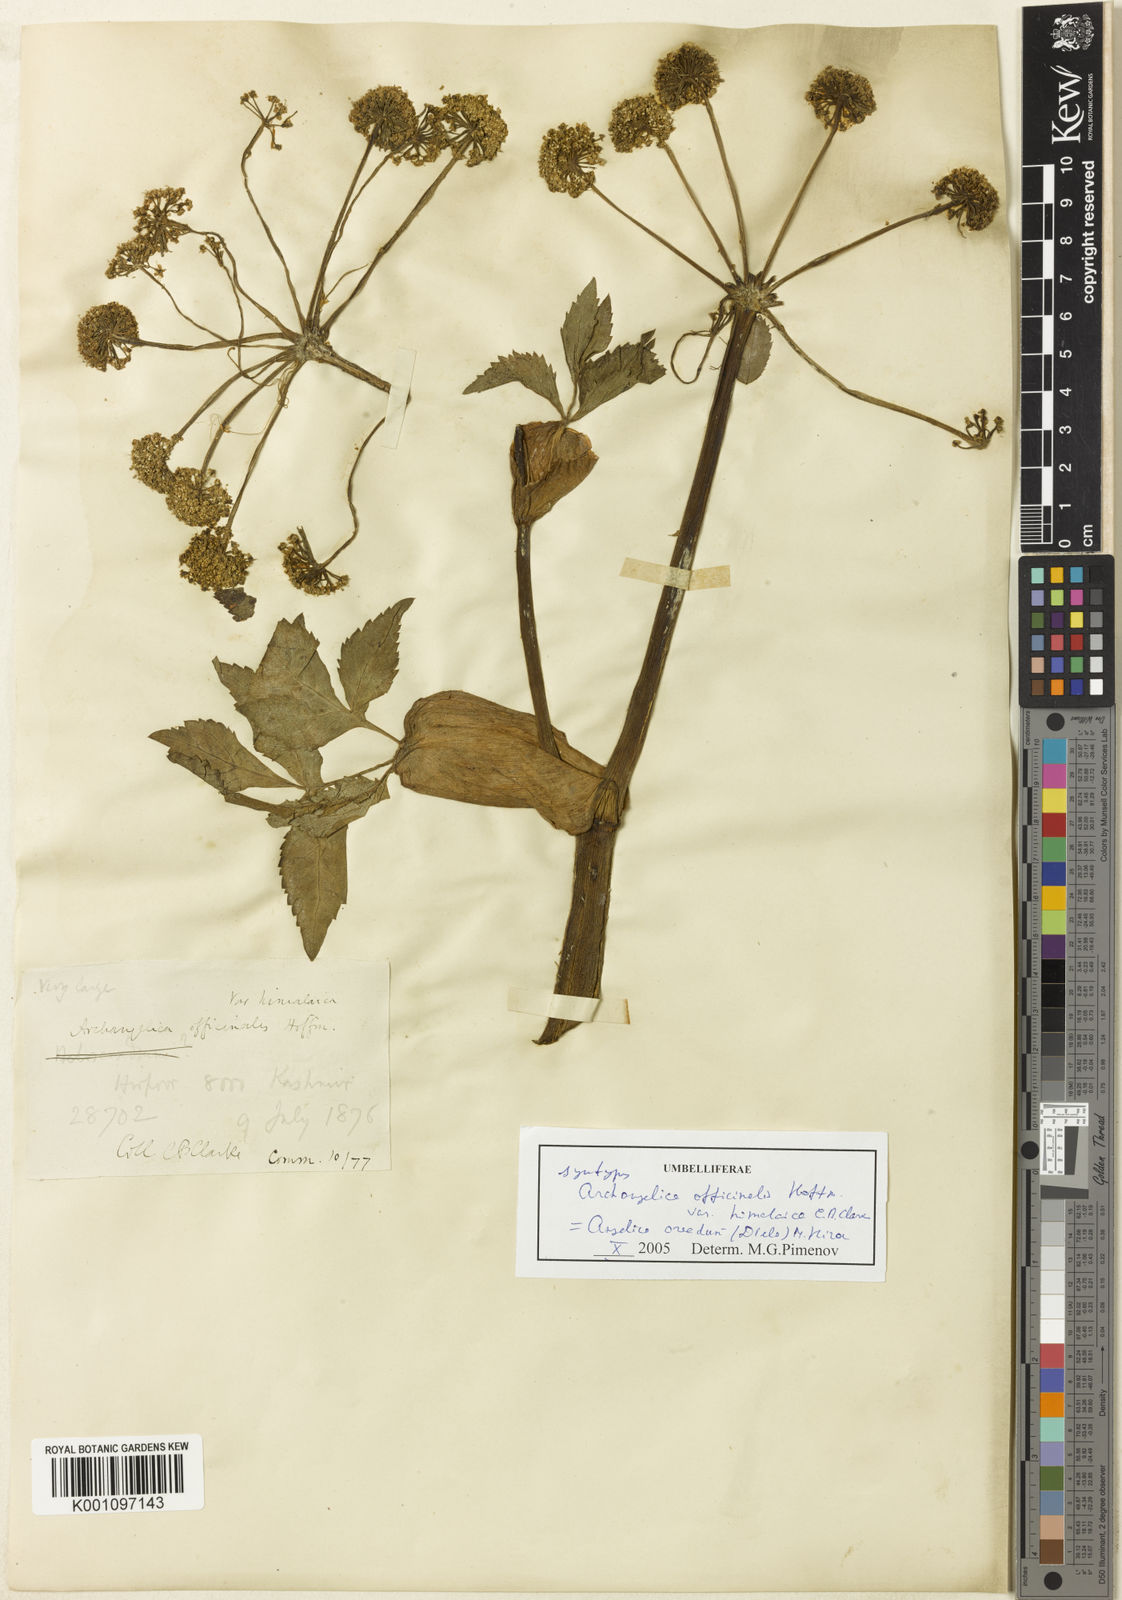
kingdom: Plantae
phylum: Tracheophyta
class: Magnoliopsida
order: Apiales
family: Apiaceae
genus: Angelica
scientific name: Angelica oreada
